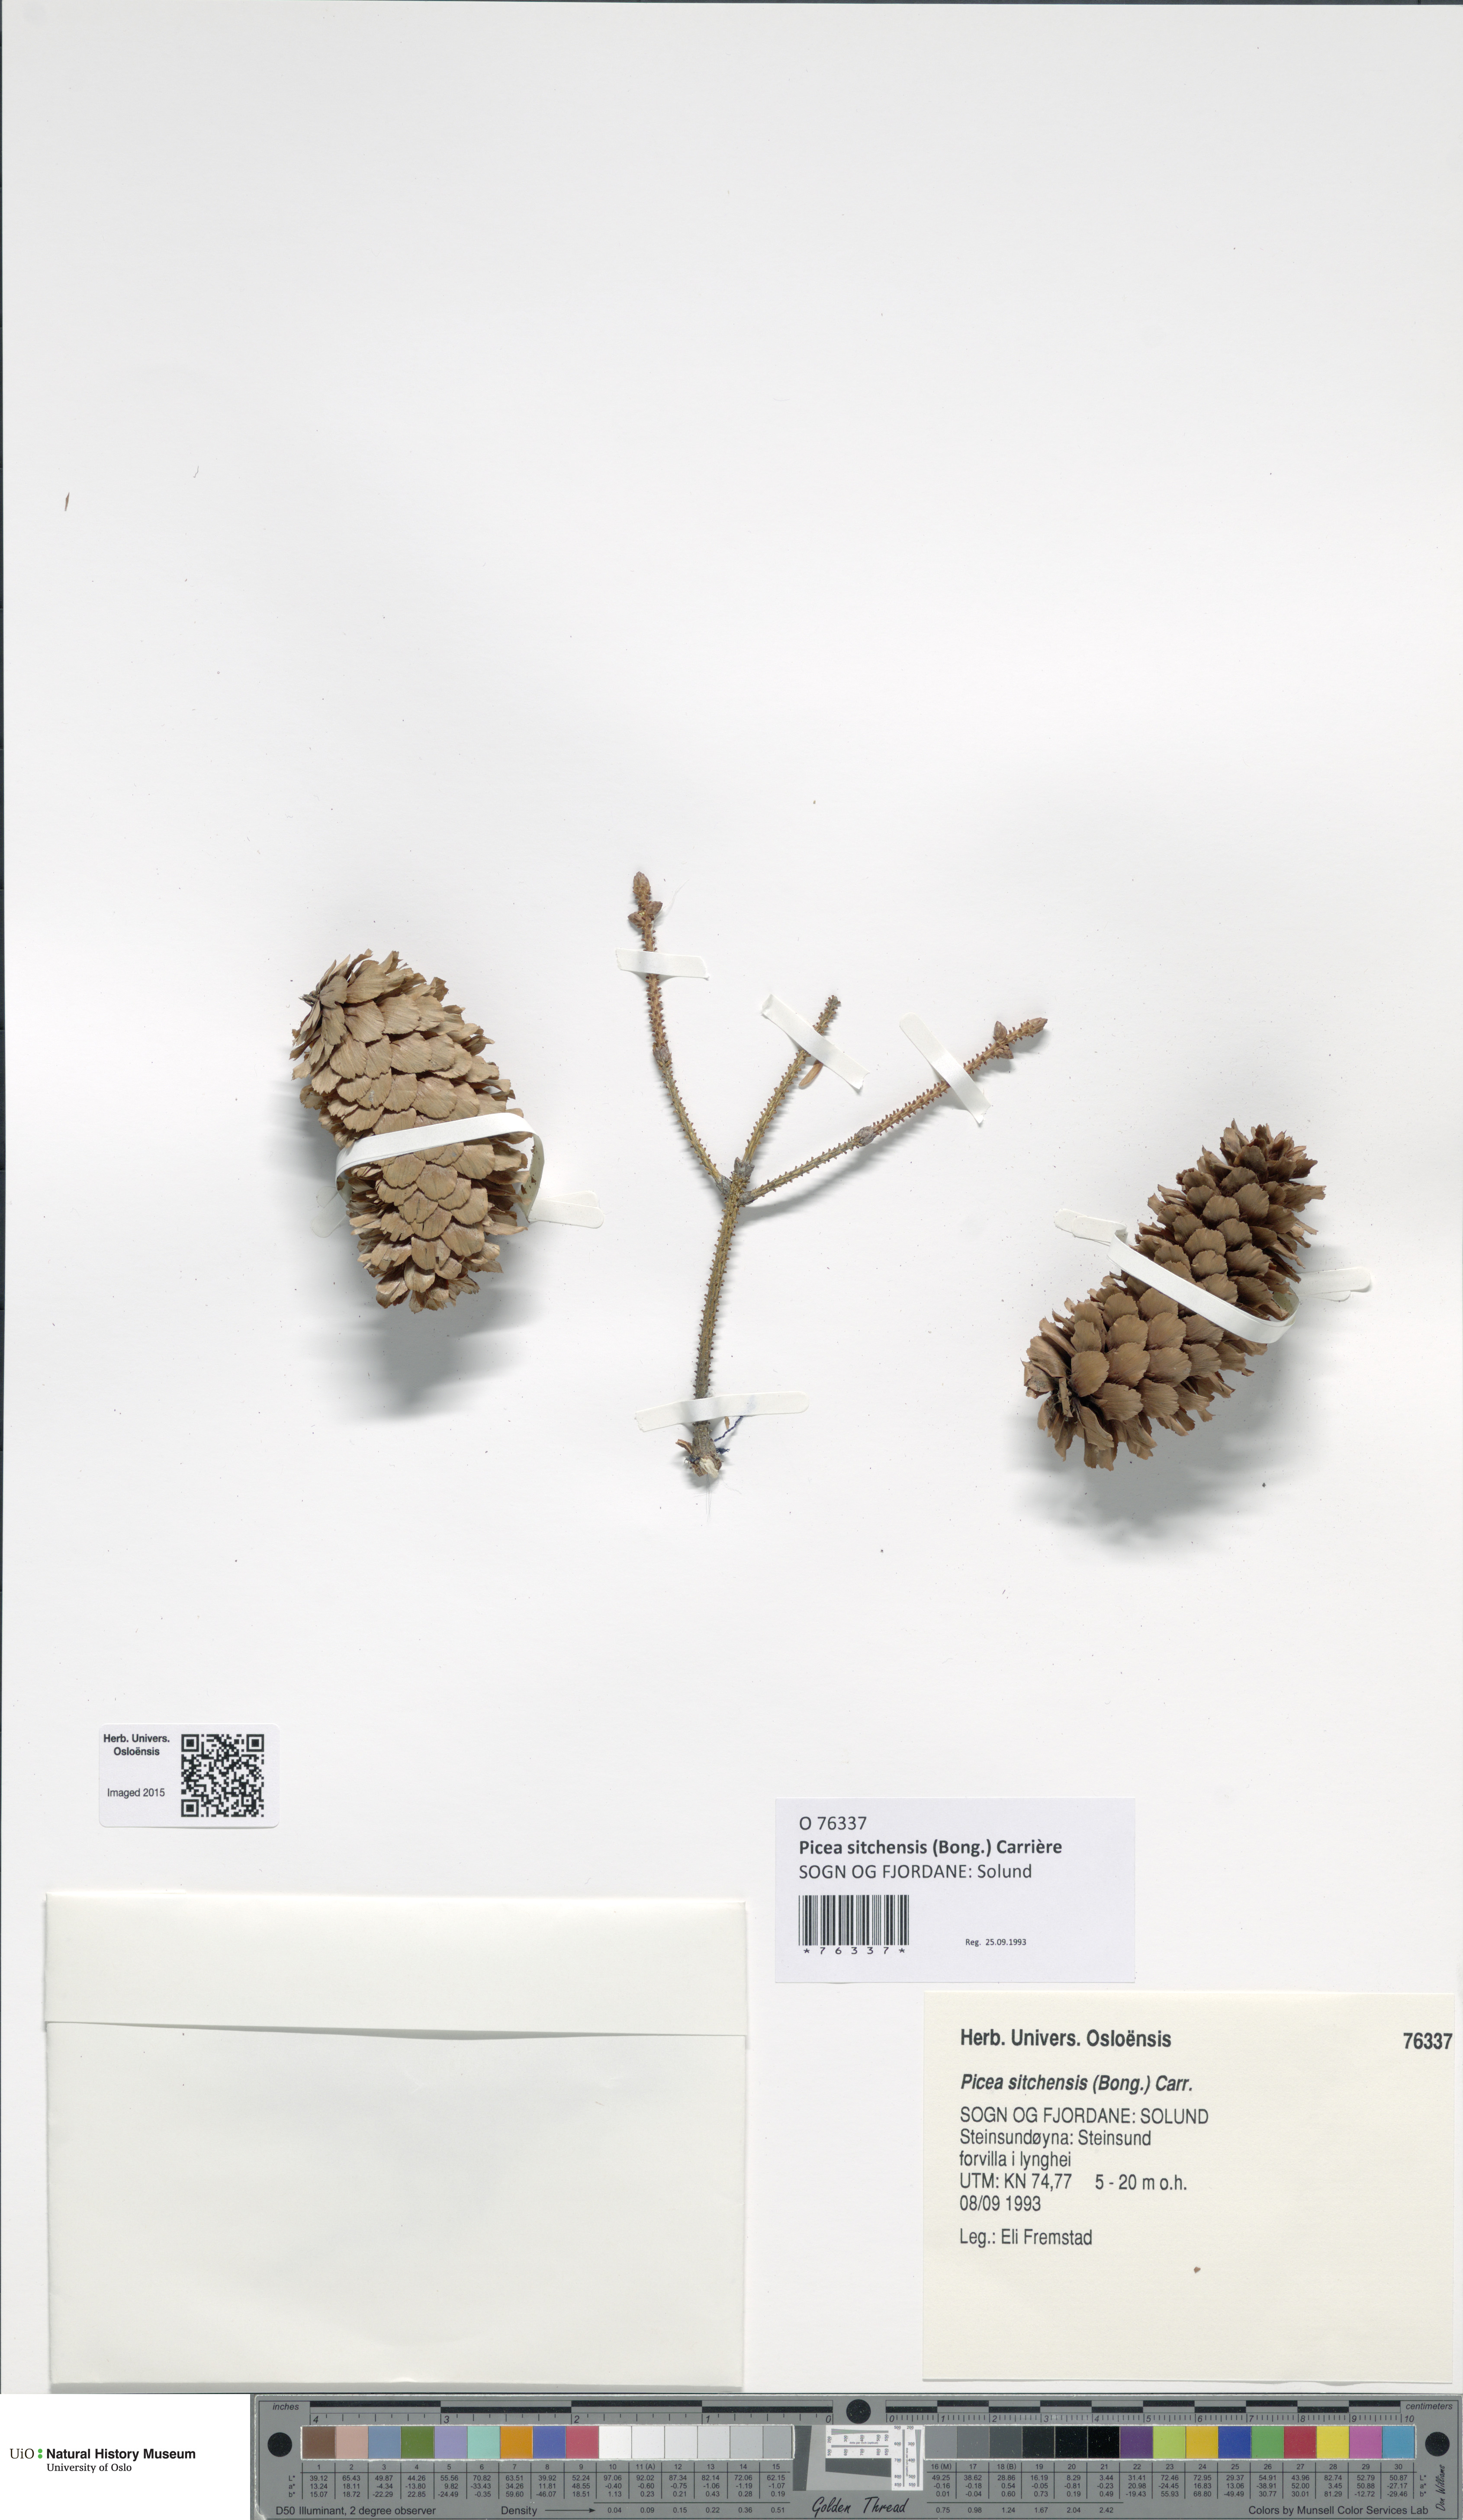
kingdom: Plantae
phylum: Tracheophyta
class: Pinopsida
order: Pinales
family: Pinaceae
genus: Picea
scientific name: Picea sitchensis
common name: Sitka spruce
